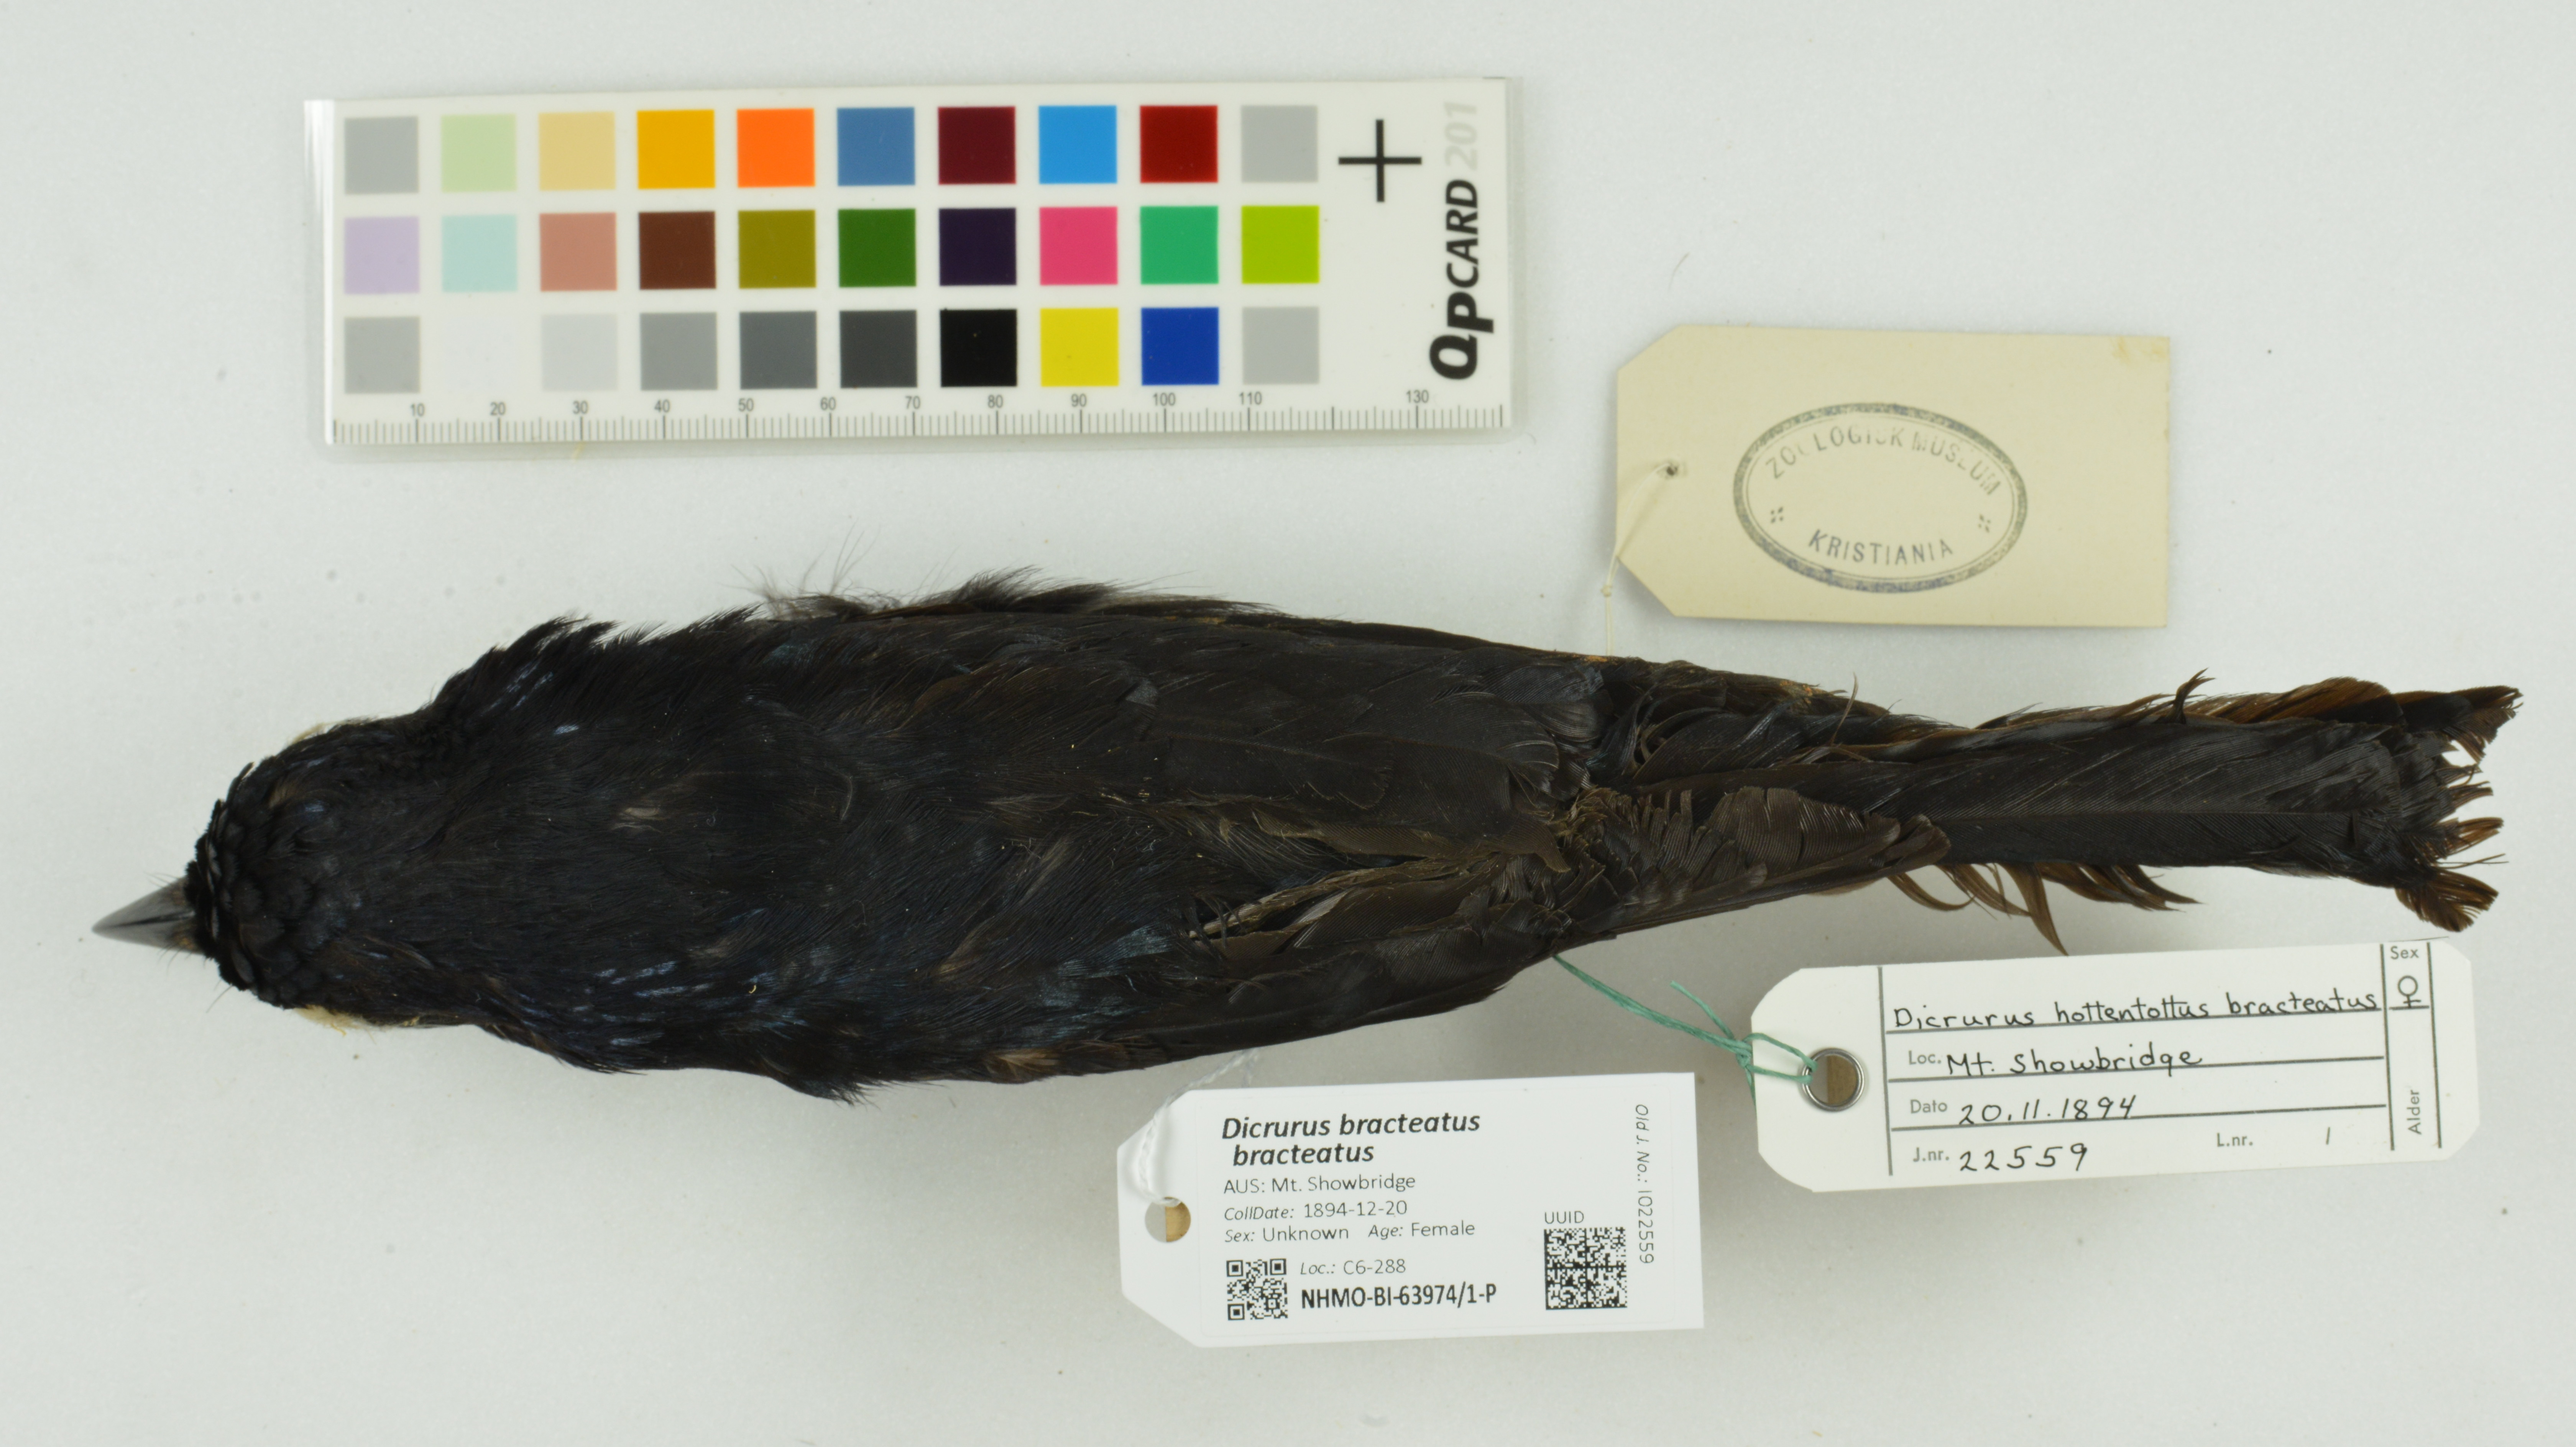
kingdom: Animalia
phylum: Chordata
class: Aves
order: Passeriformes
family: Dicruridae
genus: Dicrurus
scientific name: Dicrurus bracteatus
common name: Spangled drongo
